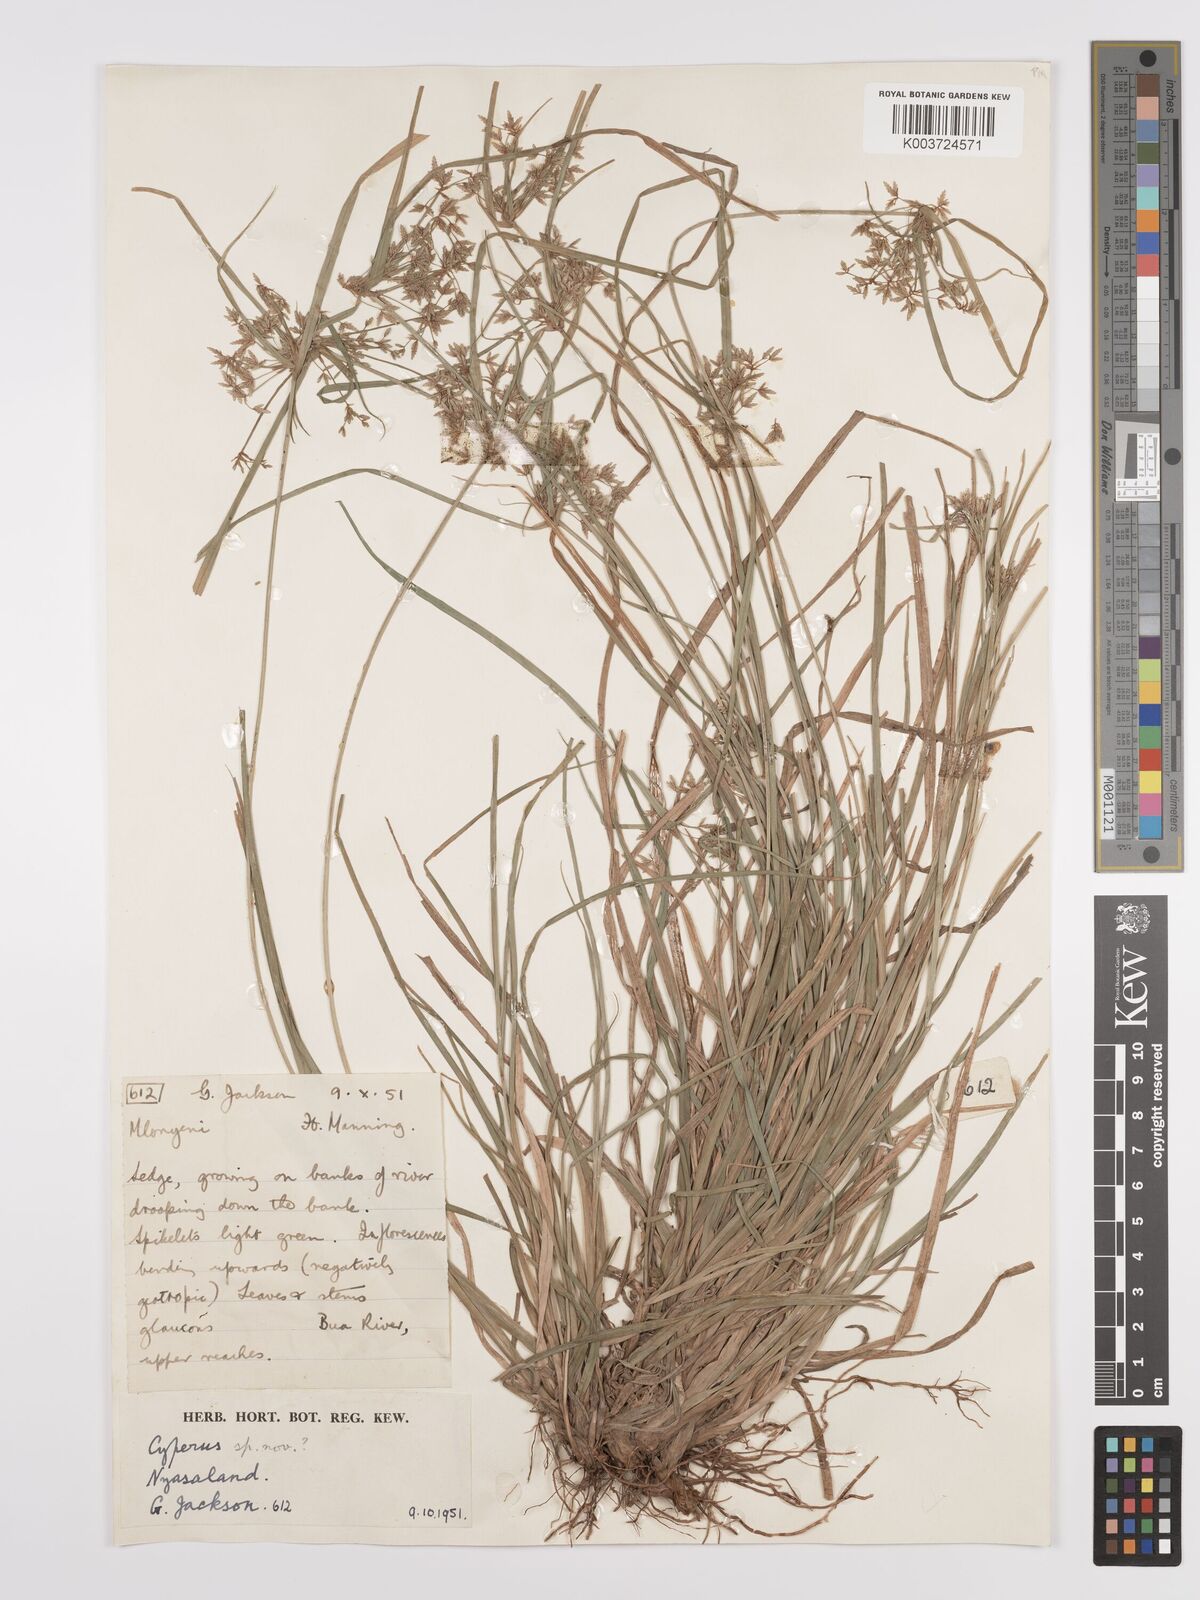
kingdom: Plantae
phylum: Tracheophyta
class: Liliopsida
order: Poales
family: Cyperaceae
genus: Cyperus
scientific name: Cyperus deciduus
